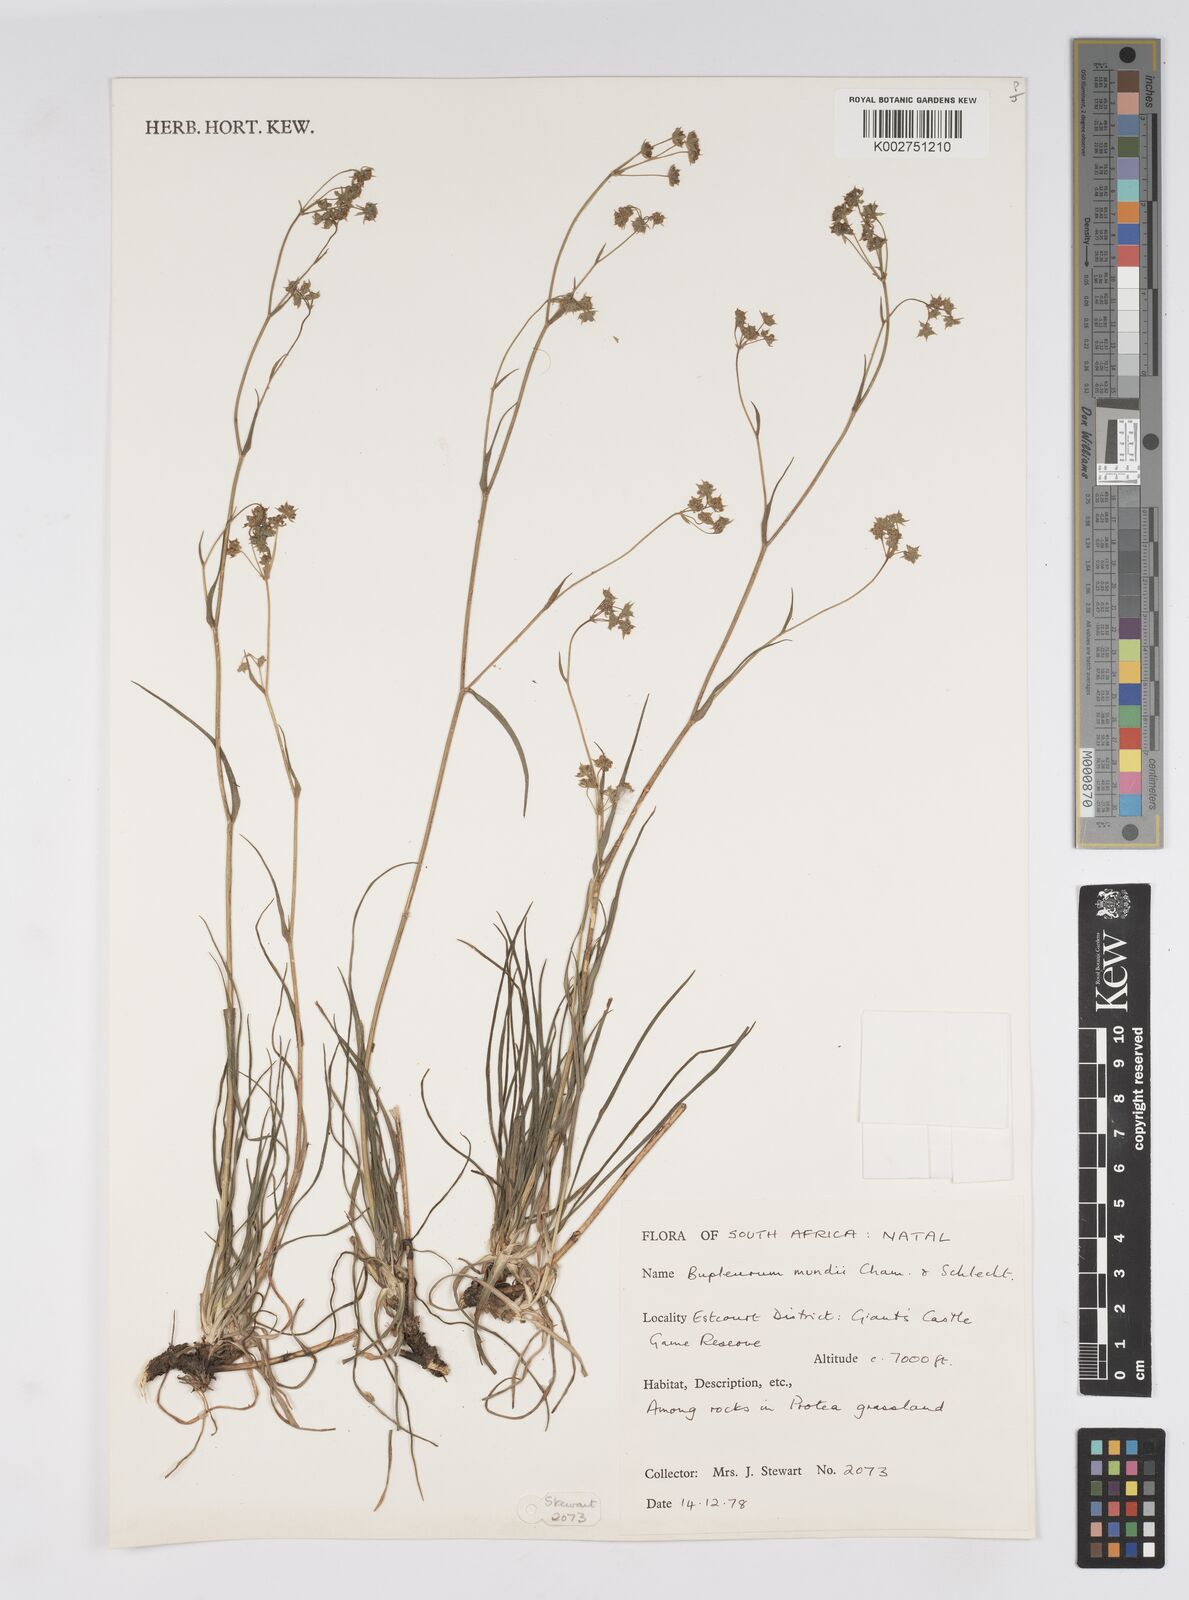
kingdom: Plantae
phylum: Tracheophyta
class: Magnoliopsida
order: Apiales
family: Apiaceae
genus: Bupleurum
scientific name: Bupleurum mundii
